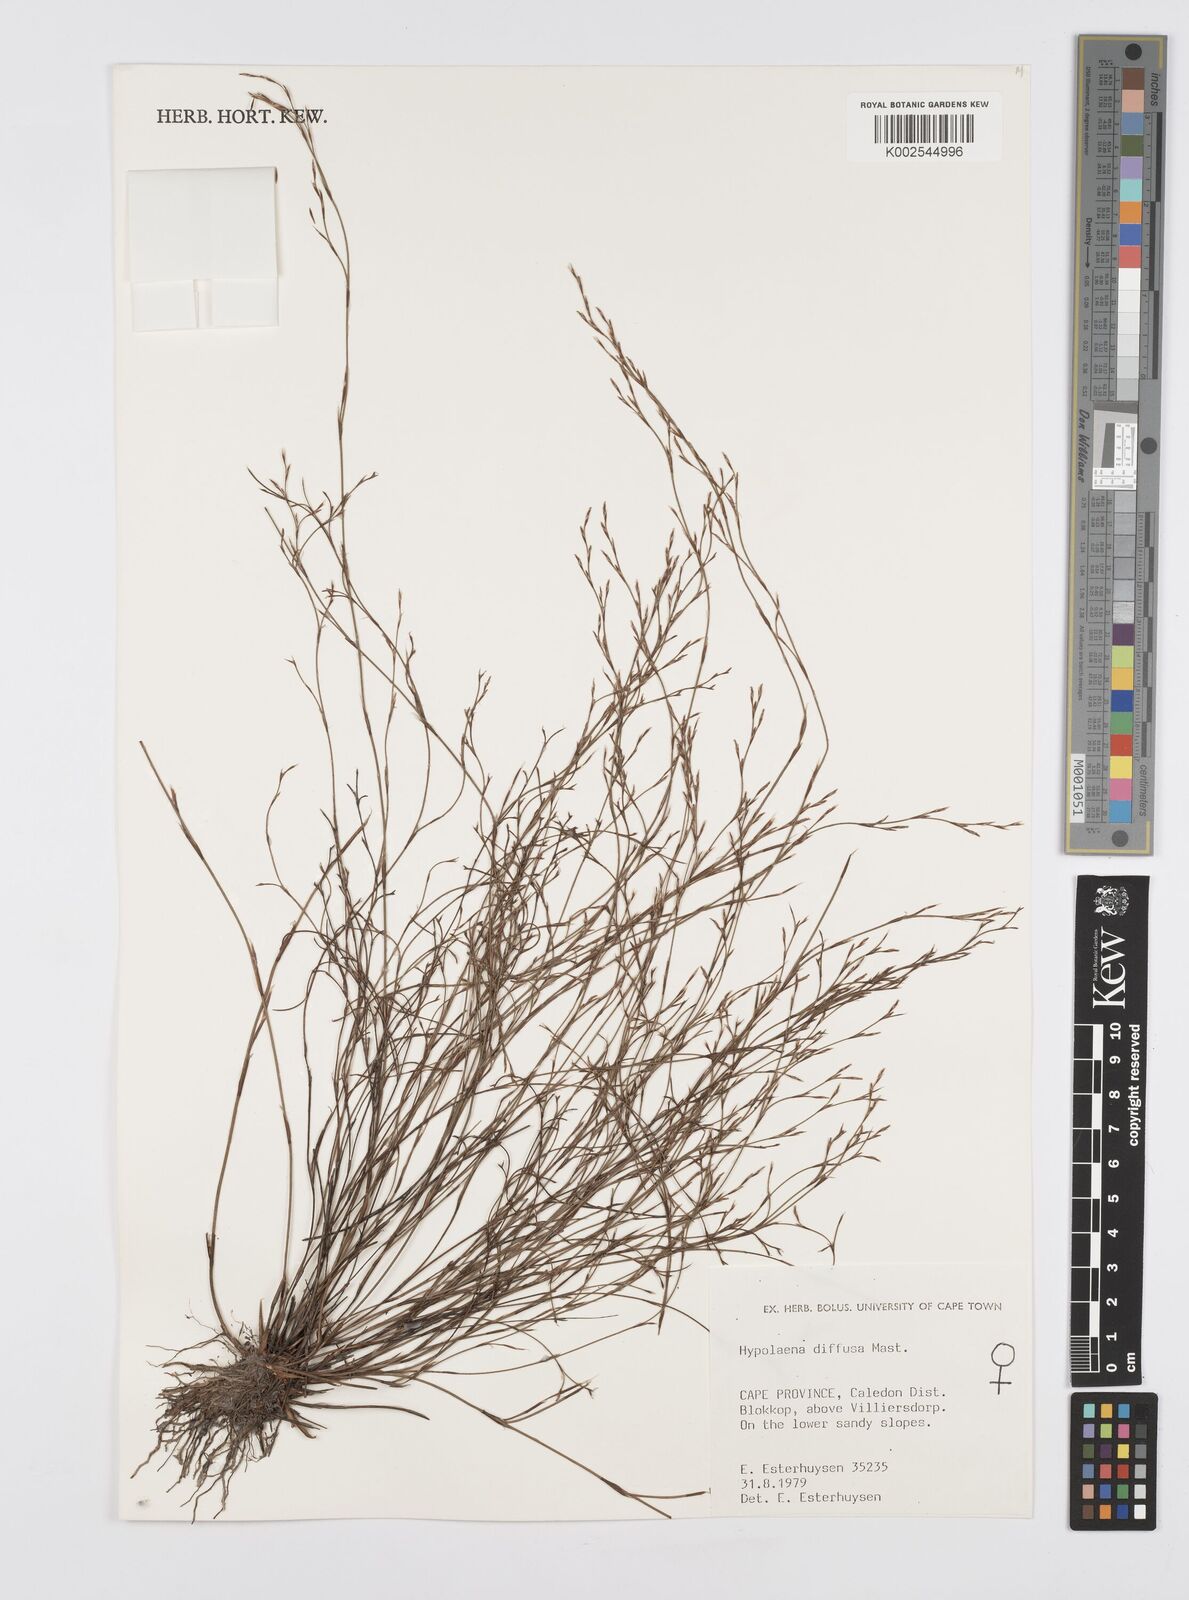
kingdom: Plantae
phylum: Tracheophyta
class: Liliopsida
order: Poales
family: Restionaceae
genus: Anthochortus
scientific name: Anthochortus crinalis
